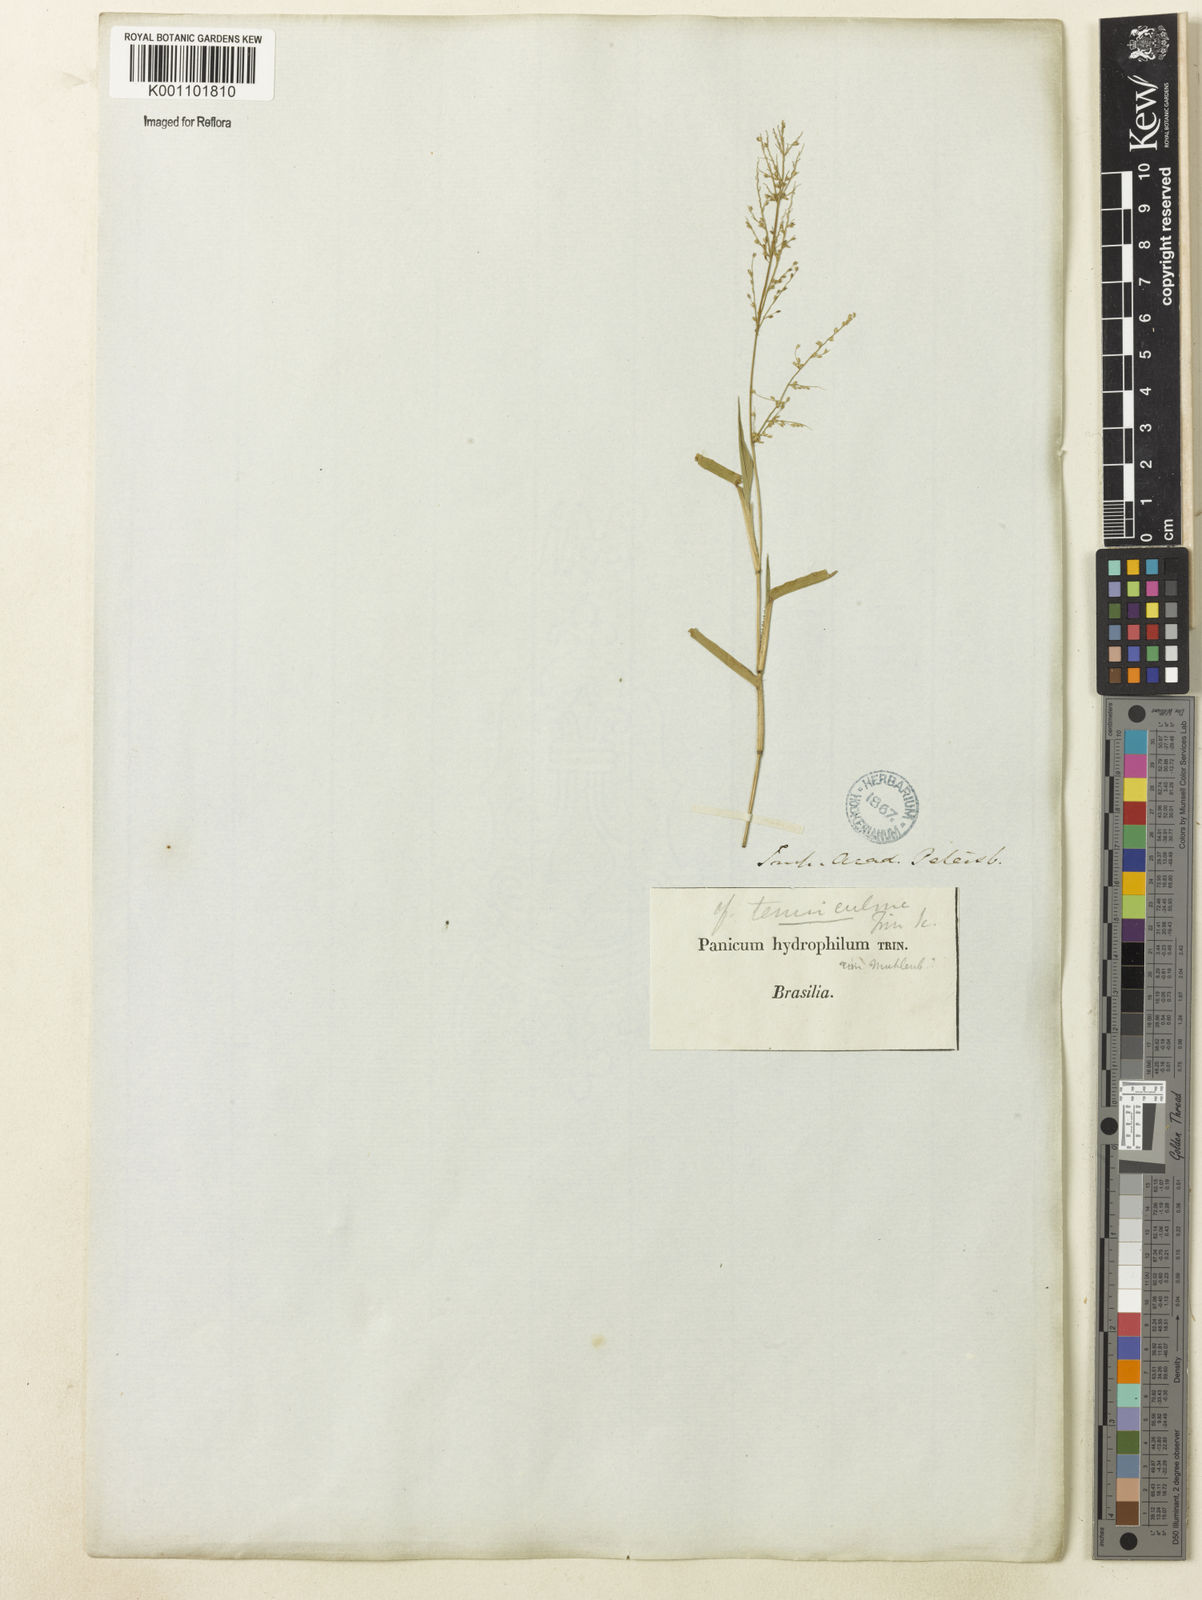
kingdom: Plantae
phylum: Tracheophyta
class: Liliopsida
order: Poales
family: Poaceae
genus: Rugoloa
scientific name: Rugoloa polygonata
